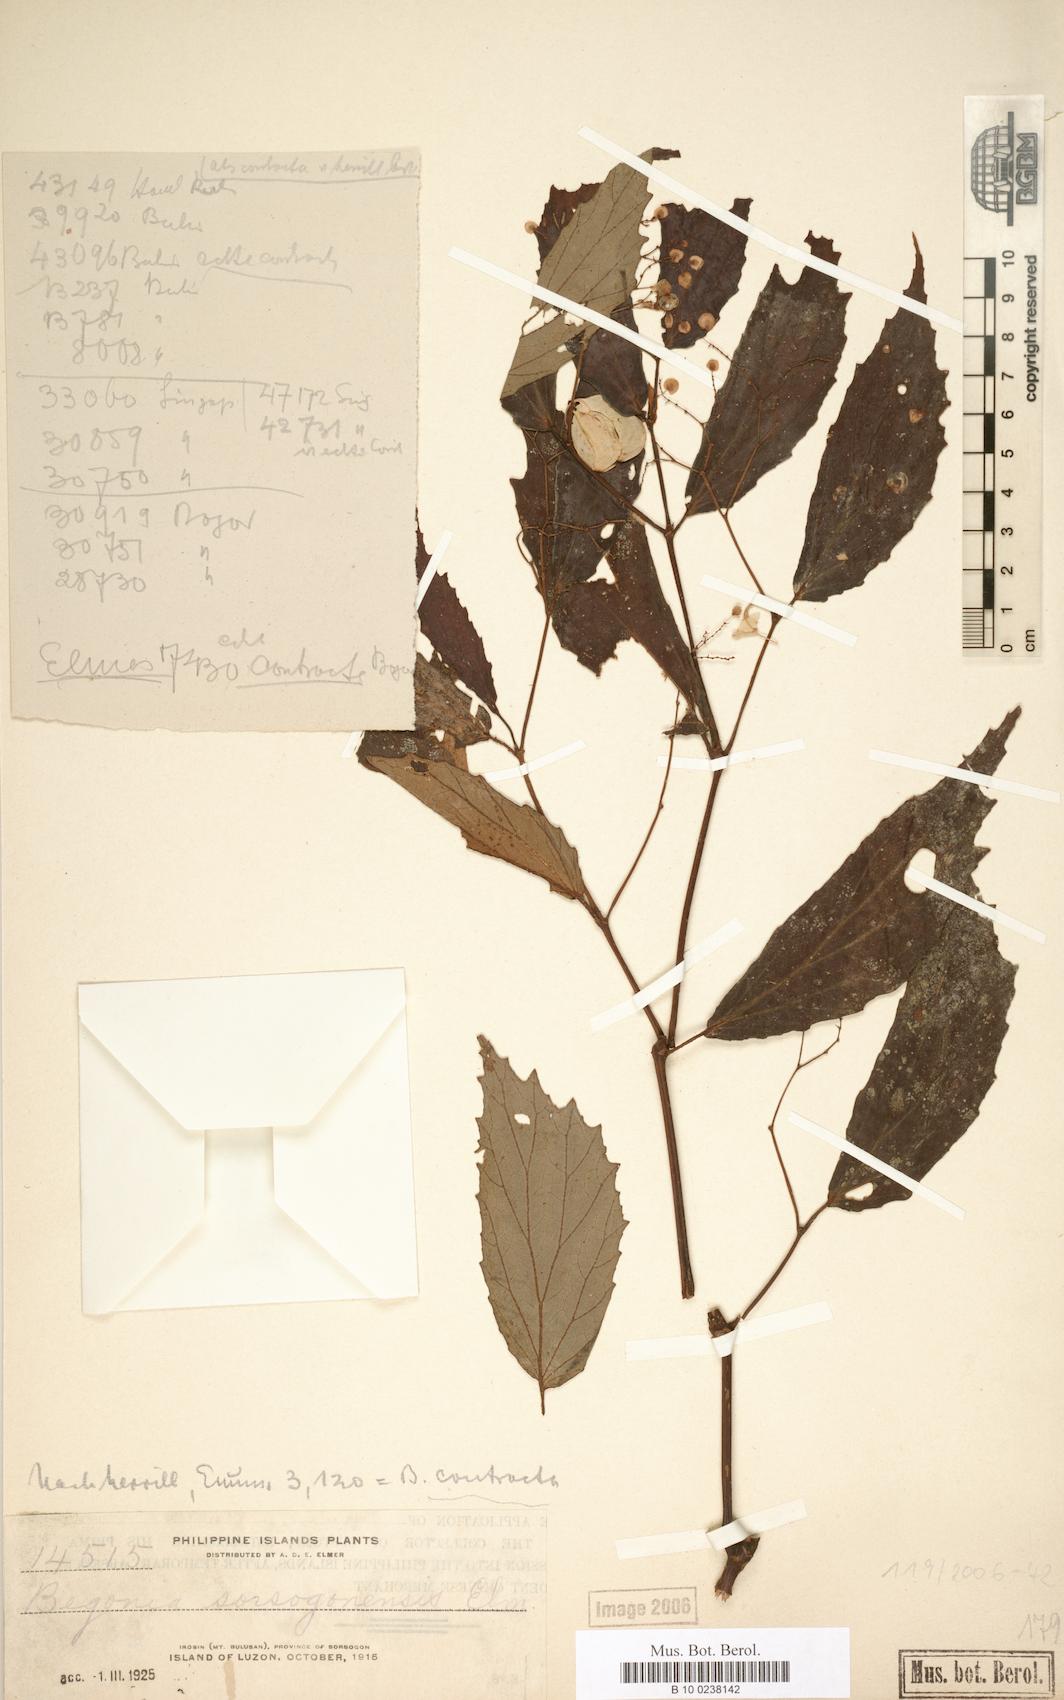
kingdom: Plantae
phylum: Tracheophyta
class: Magnoliopsida
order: Cucurbitales
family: Begoniaceae
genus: Begonia
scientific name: Begonia contracta
